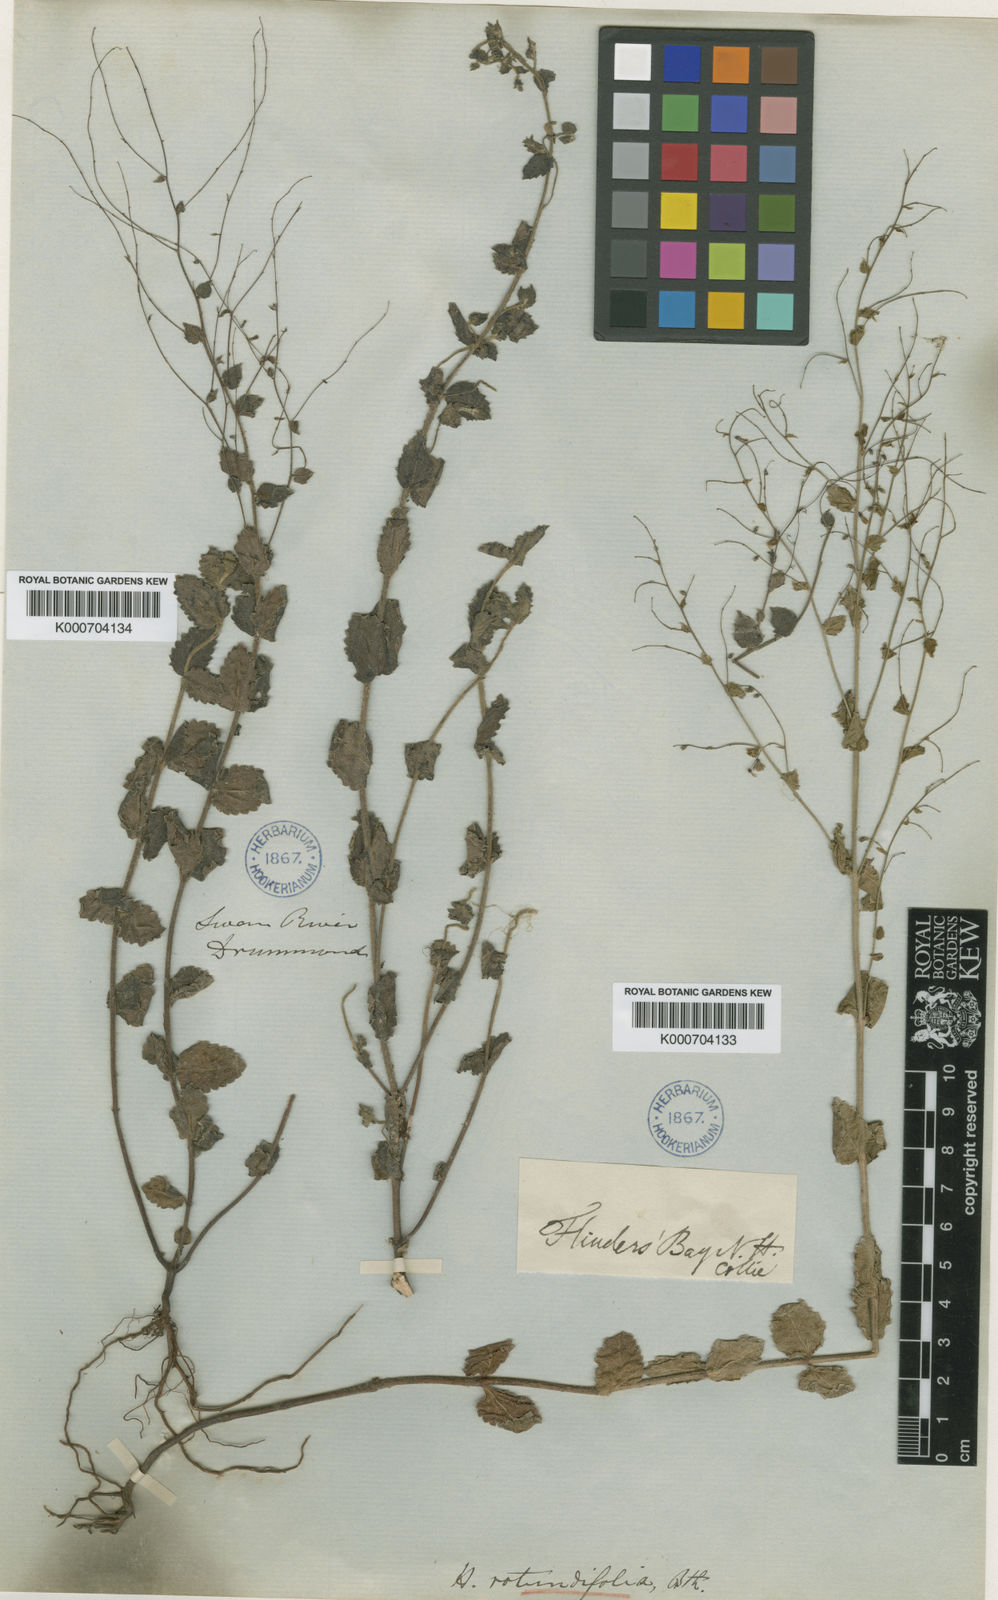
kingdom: Plantae
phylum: Tracheophyta
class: Magnoliopsida
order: Saxifragales
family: Haloragaceae
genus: Gonocarpus
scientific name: Gonocarpus benthamii
